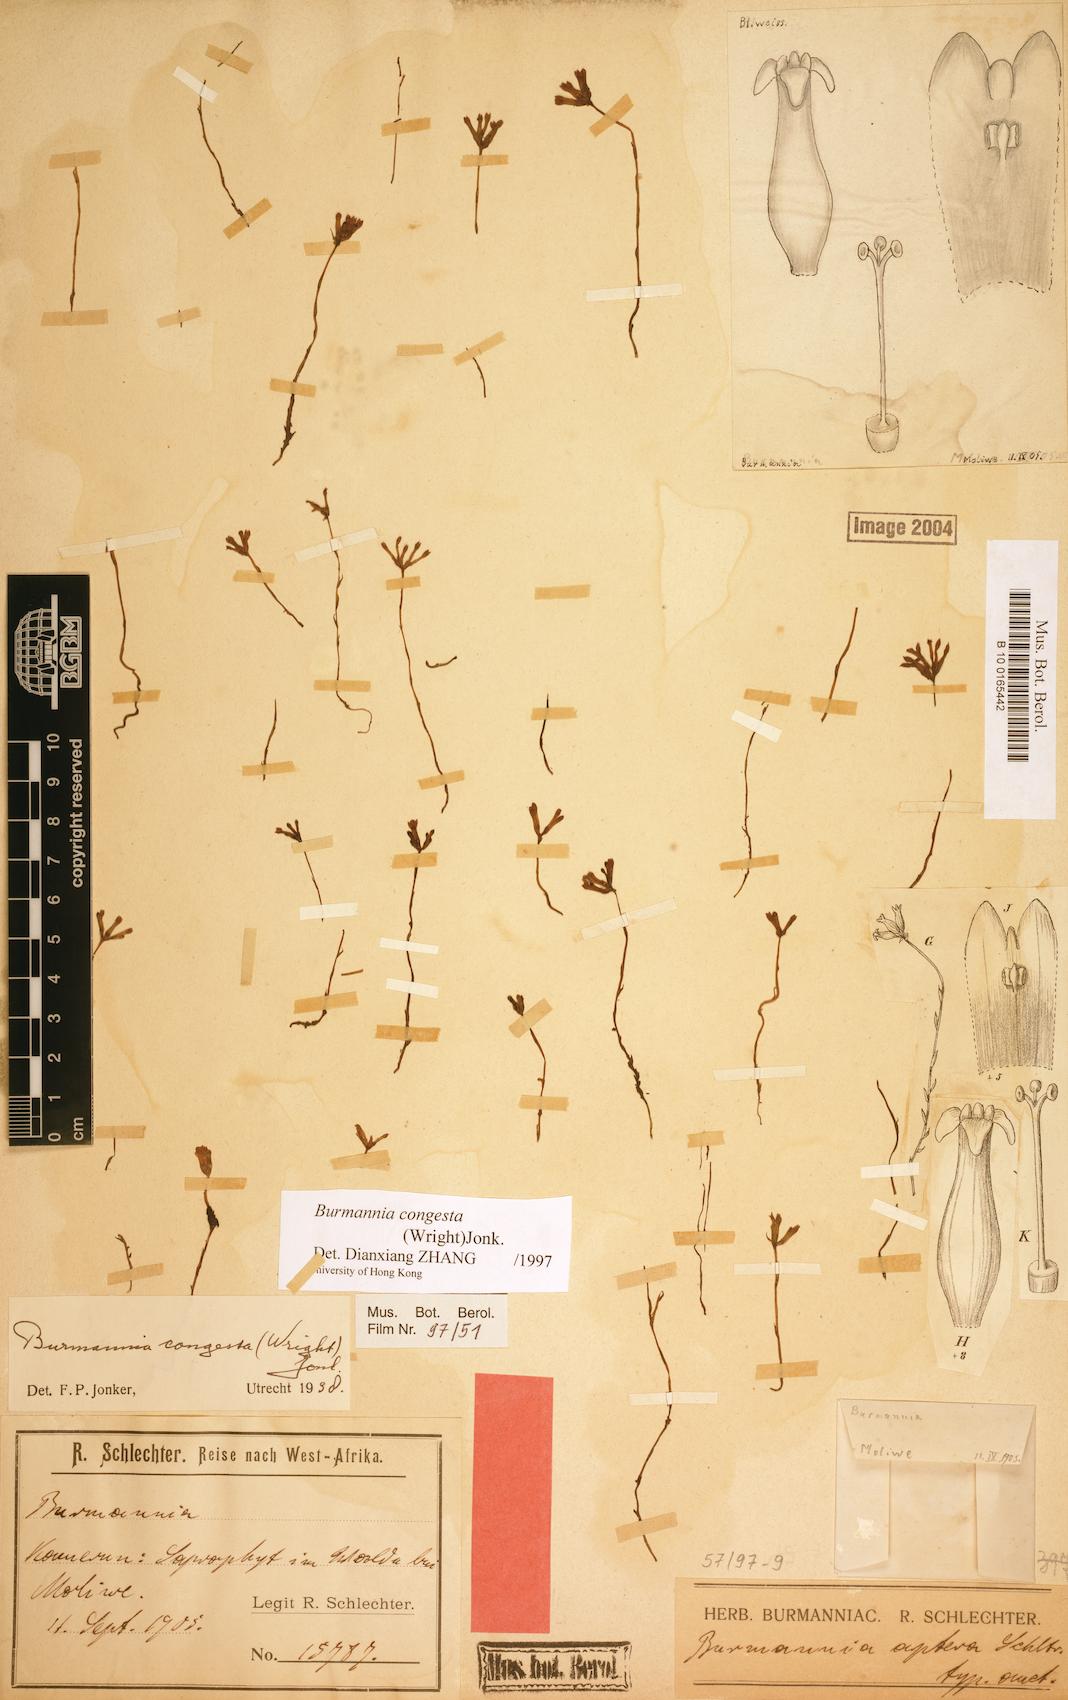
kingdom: Plantae
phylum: Tracheophyta
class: Liliopsida
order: Dioscoreales
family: Burmanniaceae
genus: Campylosiphon
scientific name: Campylosiphon congestus
